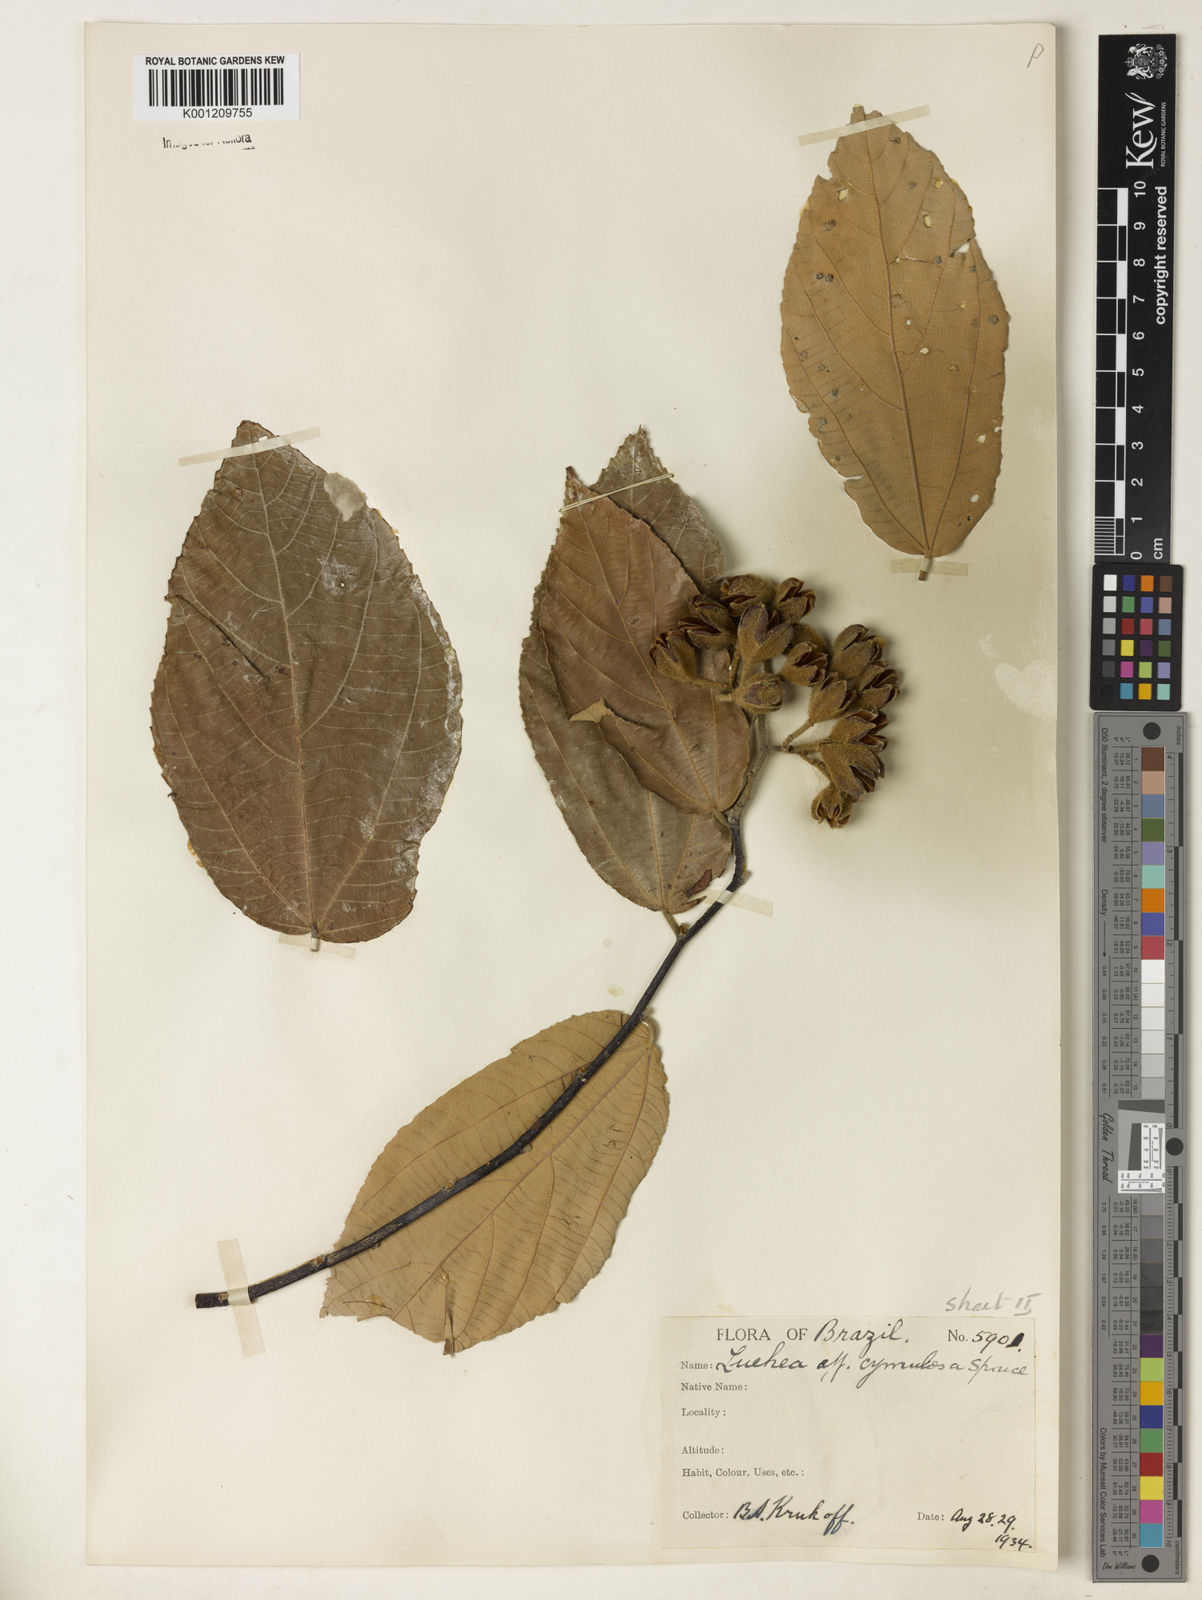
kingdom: Plantae
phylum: Tracheophyta
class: Magnoliopsida
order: Malvales
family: Malvaceae
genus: Luehea
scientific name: Luehea cymulosa
